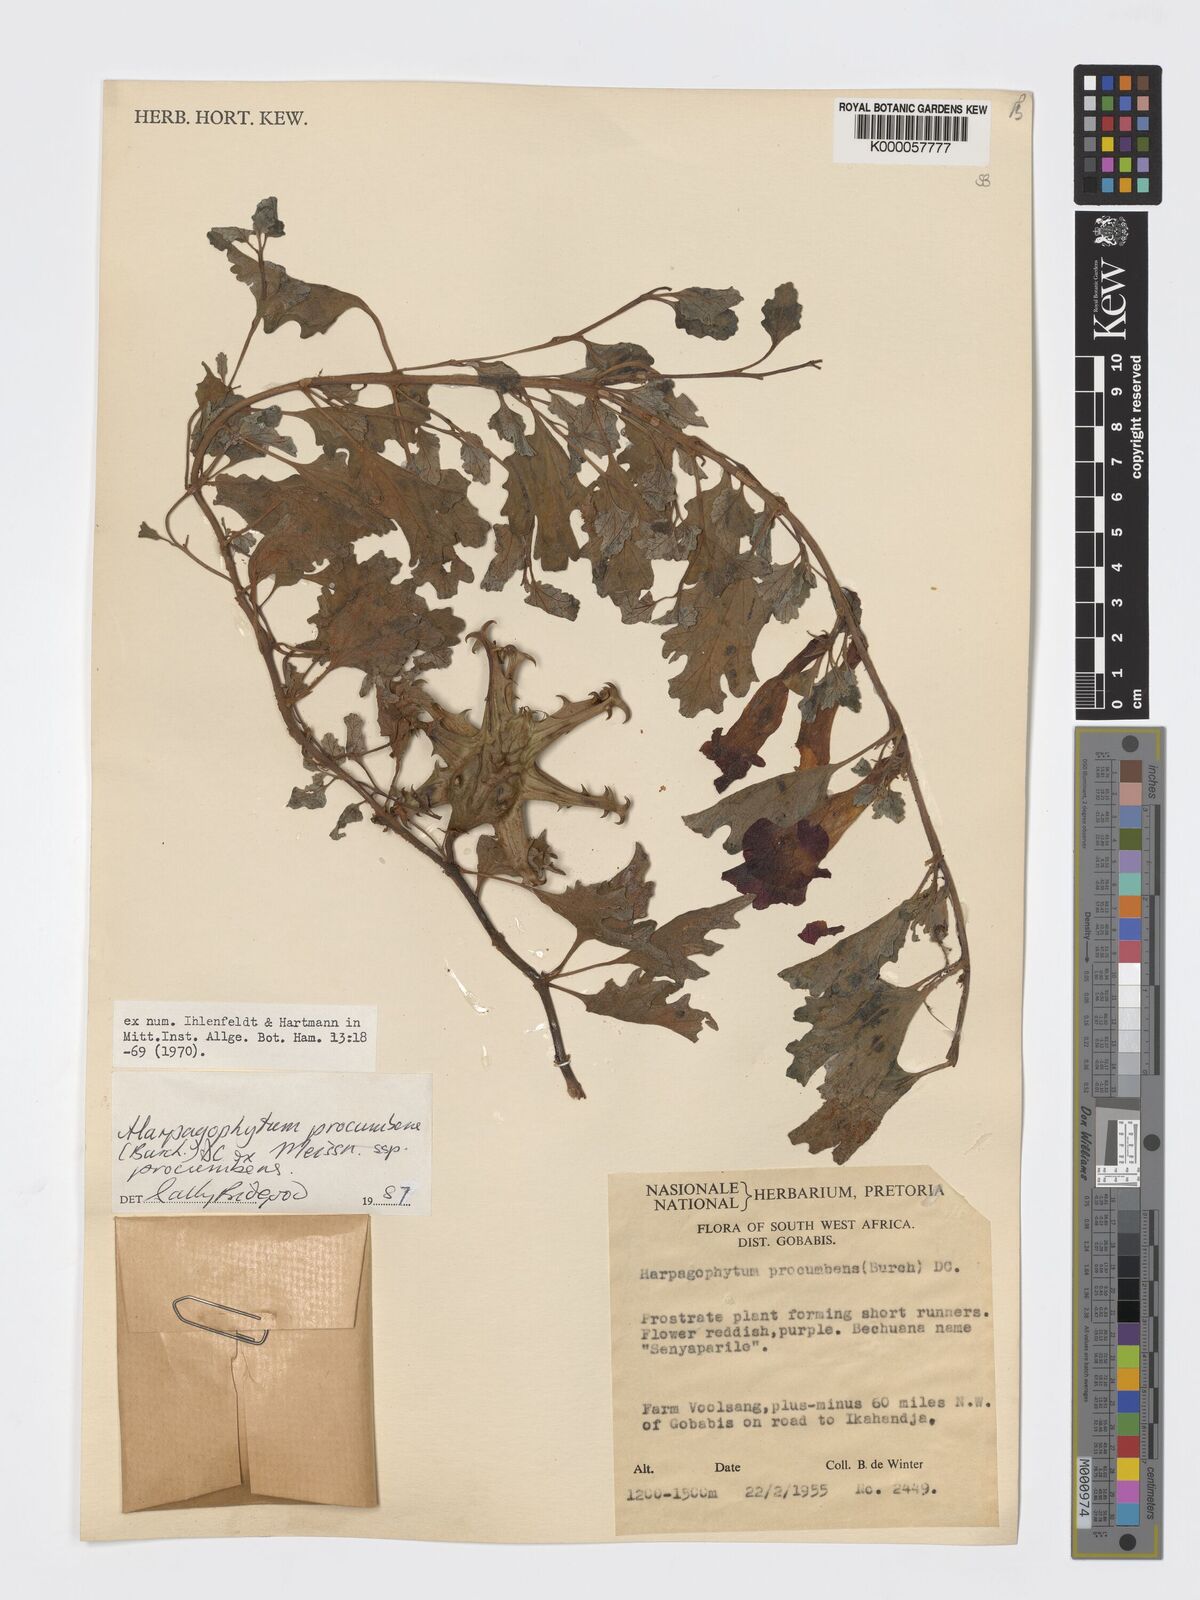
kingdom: Plantae
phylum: Tracheophyta
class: Magnoliopsida
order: Lamiales
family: Pedaliaceae
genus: Harpagophytum
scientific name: Harpagophytum procumbens
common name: Grappleplant
